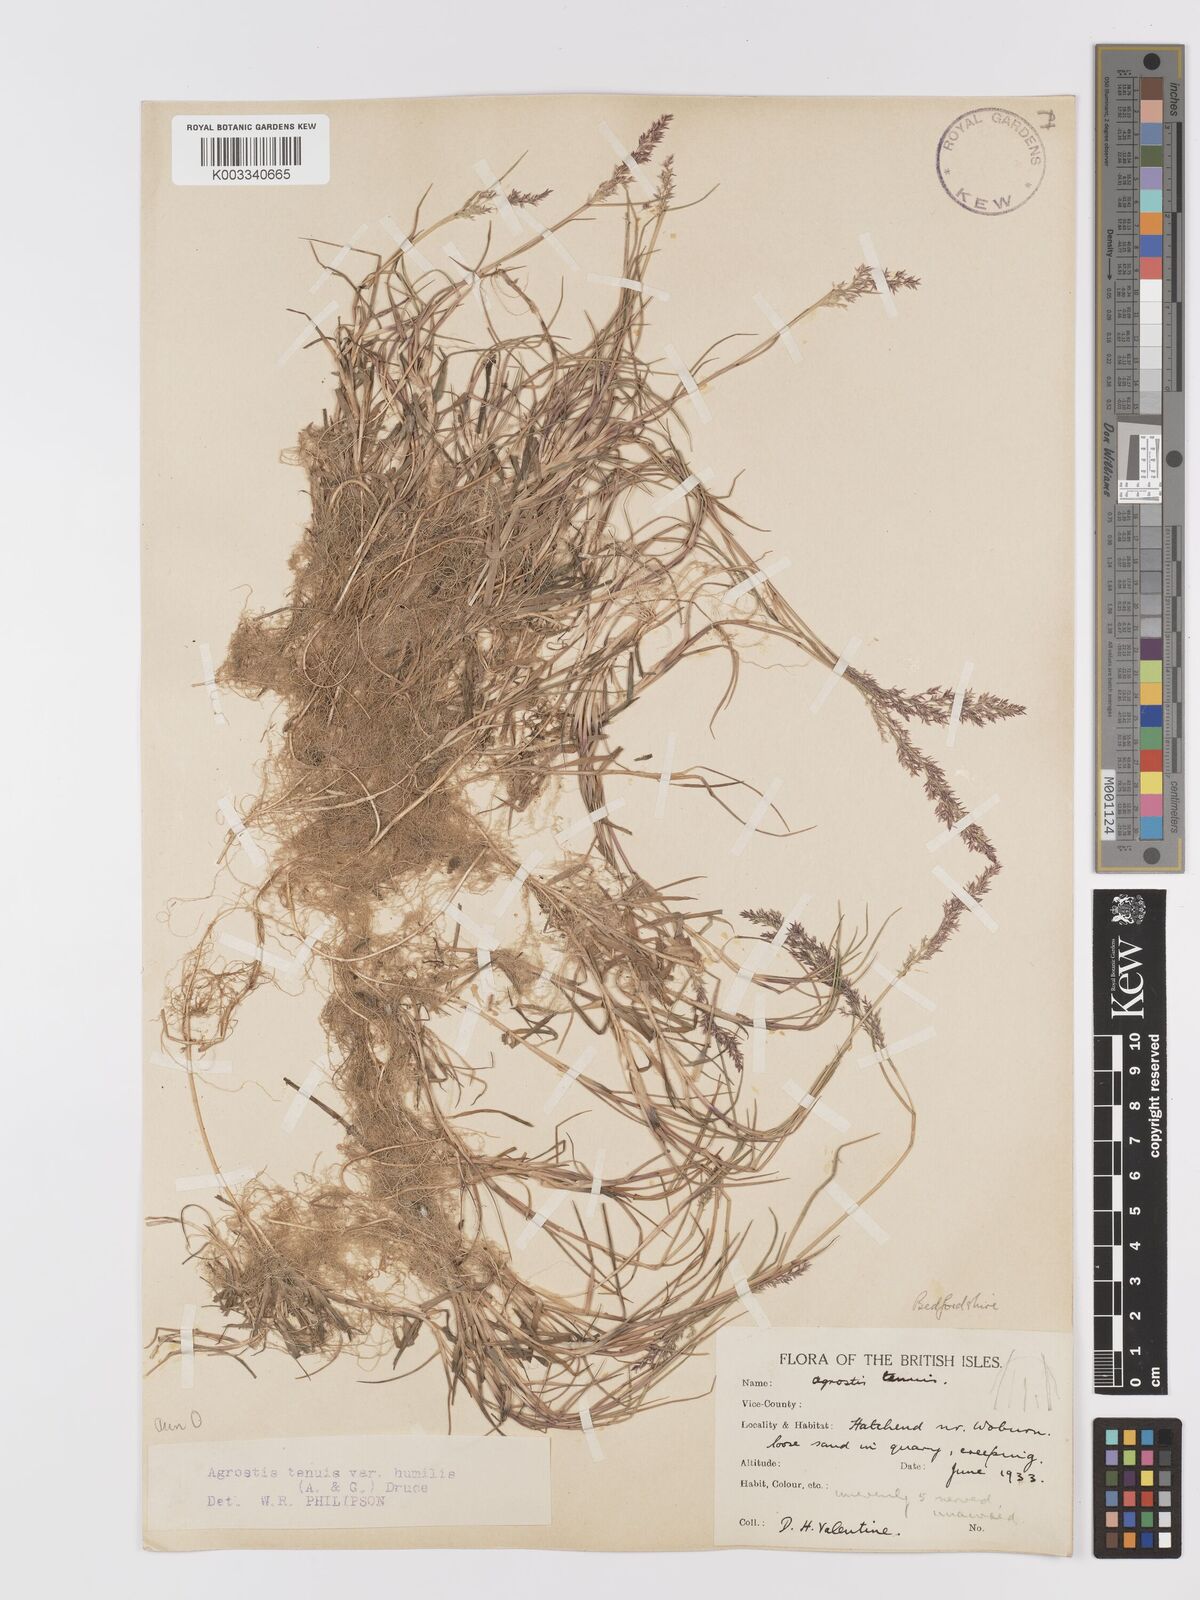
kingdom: Plantae
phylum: Tracheophyta
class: Liliopsida
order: Poales
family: Poaceae
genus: Agrostis
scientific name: Agrostis capillaris
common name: Colonial bentgrass
